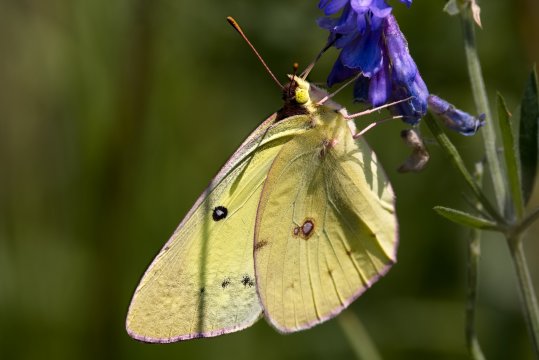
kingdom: Animalia
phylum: Arthropoda
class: Insecta
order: Lepidoptera
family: Pieridae
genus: Colias
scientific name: Colias philodice
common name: Clouded Sulphur
